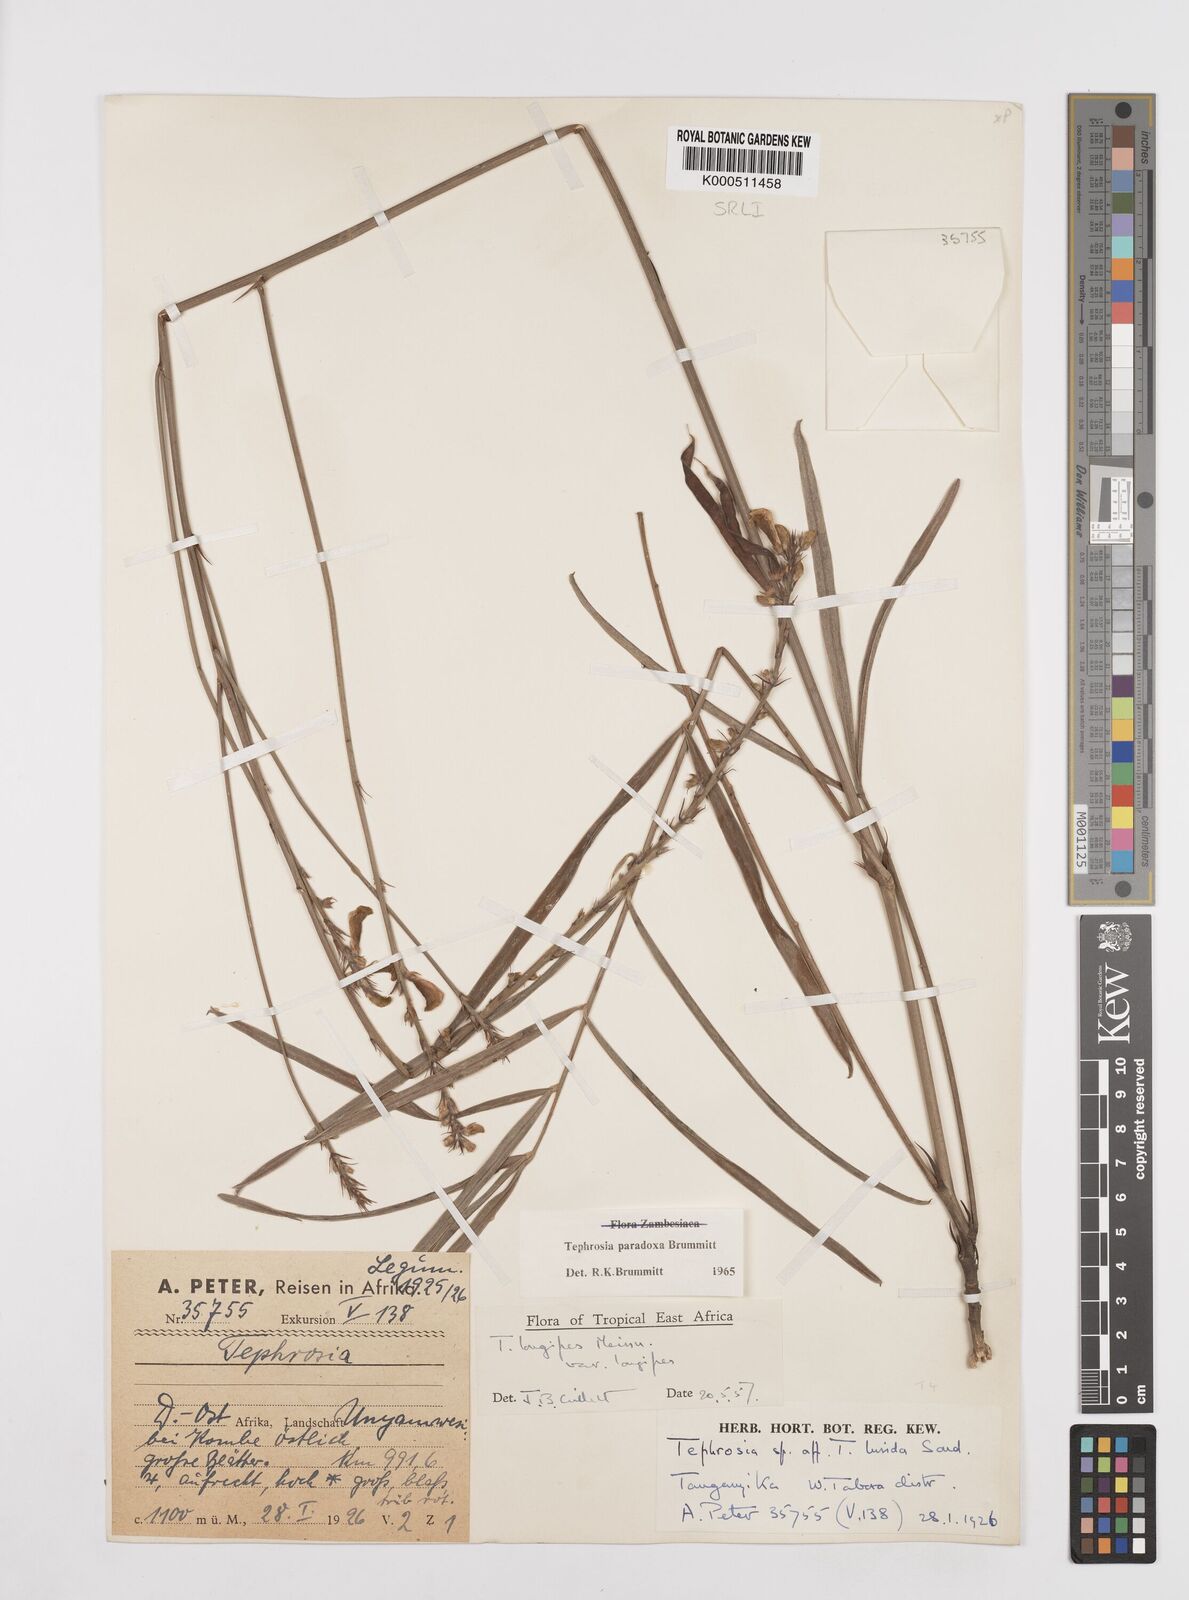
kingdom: Plantae
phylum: Tracheophyta
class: Magnoliopsida
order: Fabales
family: Fabaceae
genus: Tephrosia
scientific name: Tephrosia paradoxa
